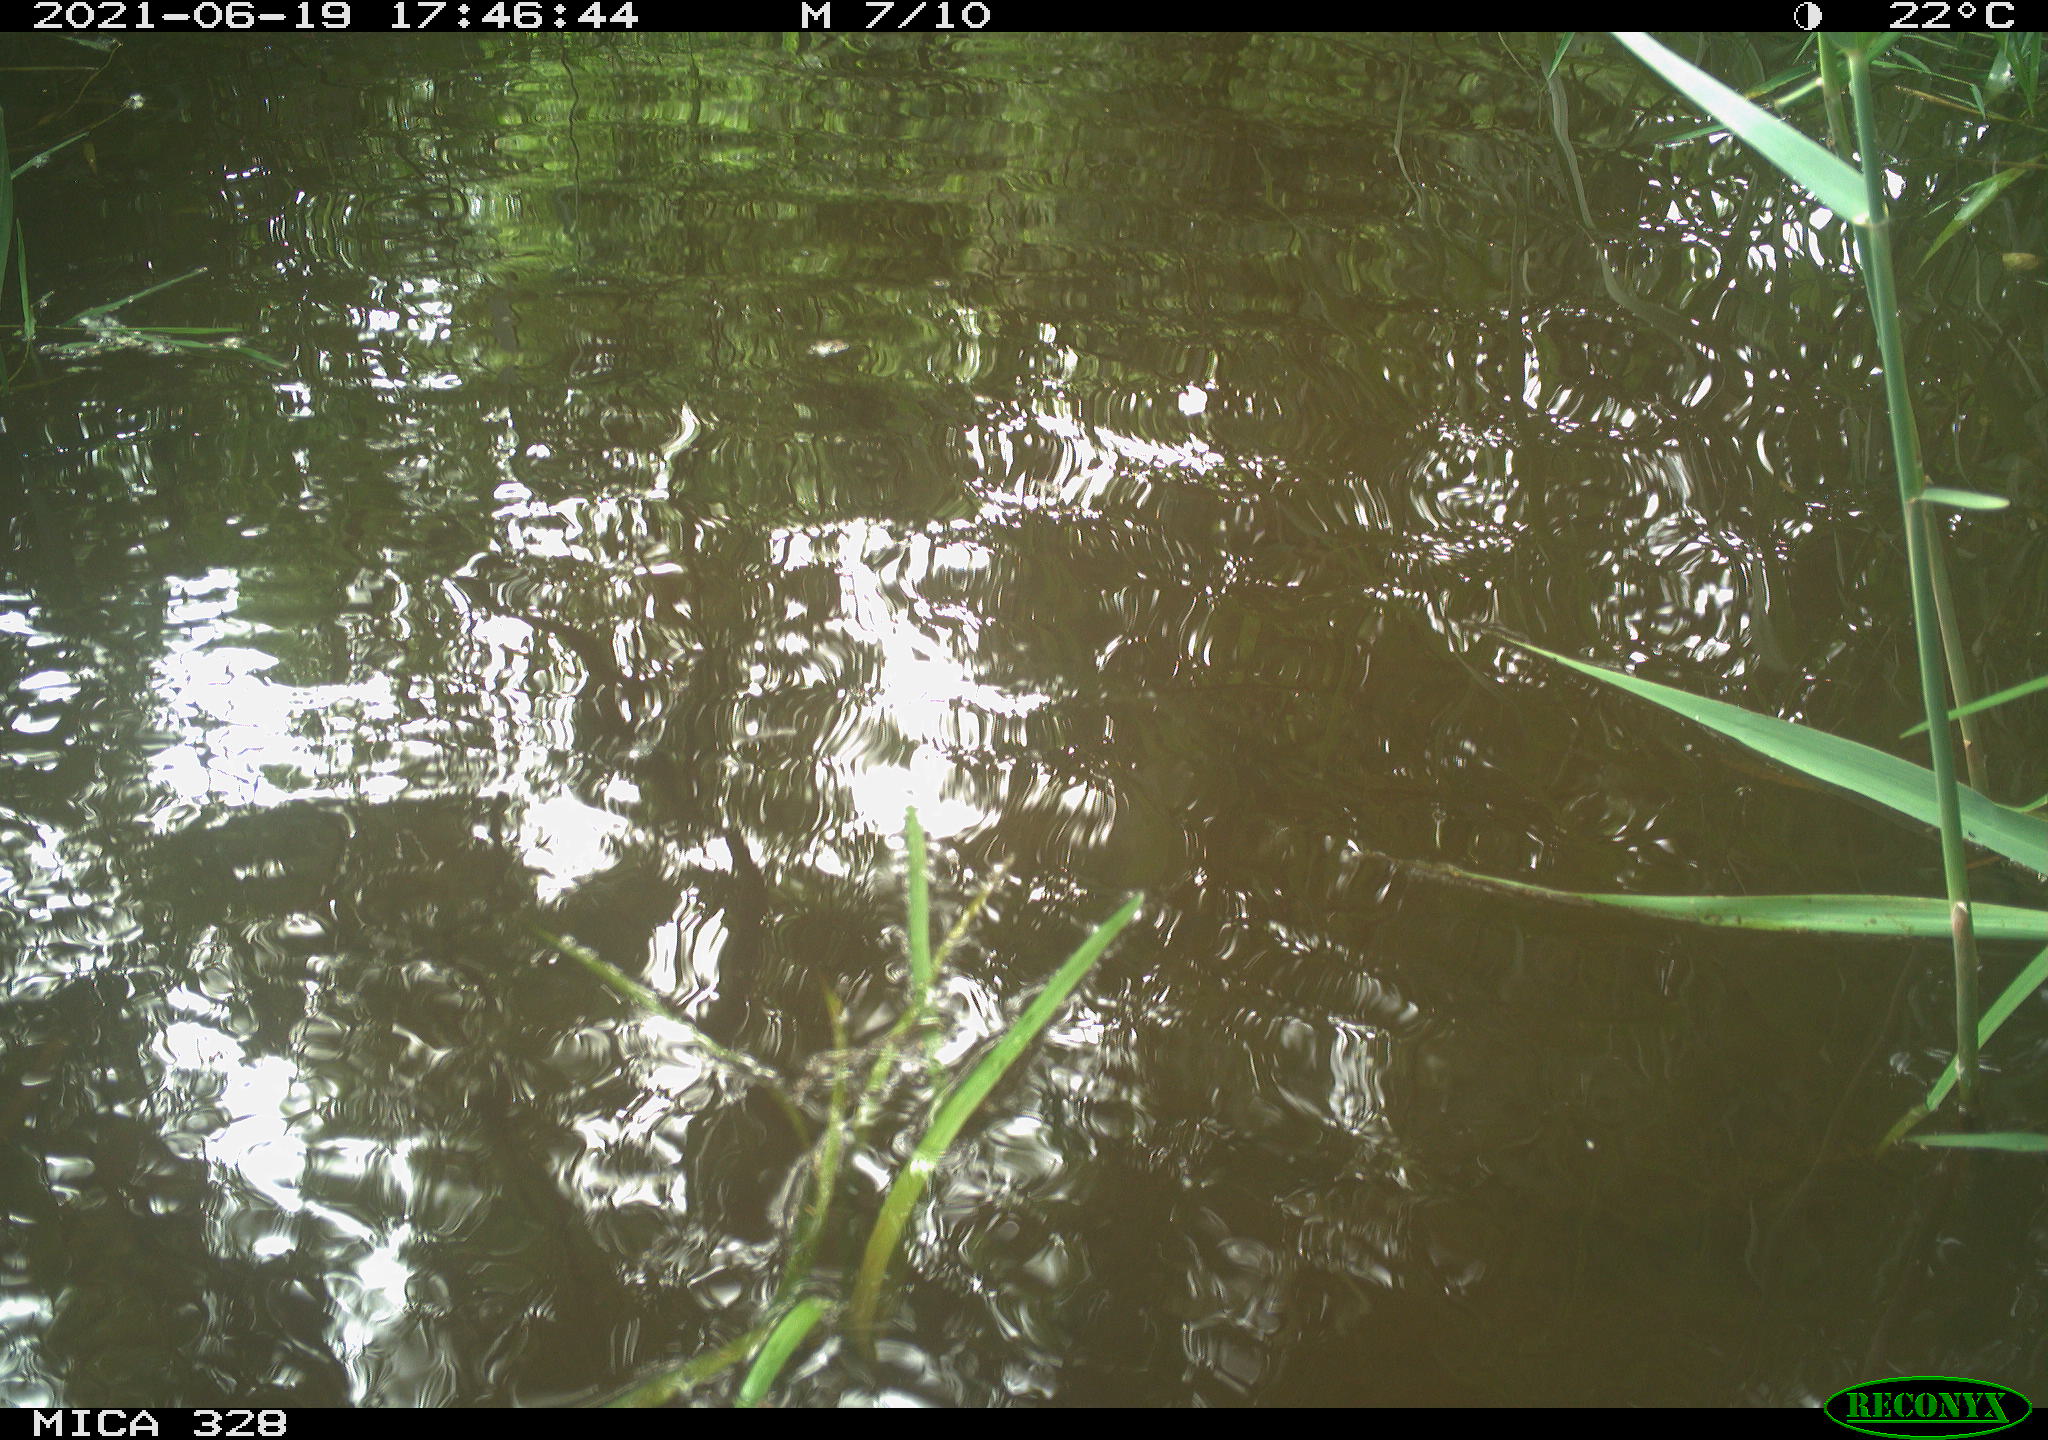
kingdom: Animalia
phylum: Chordata
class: Aves
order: Anseriformes
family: Anatidae
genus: Aix
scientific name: Aix galericulata
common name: Mandarin duck
